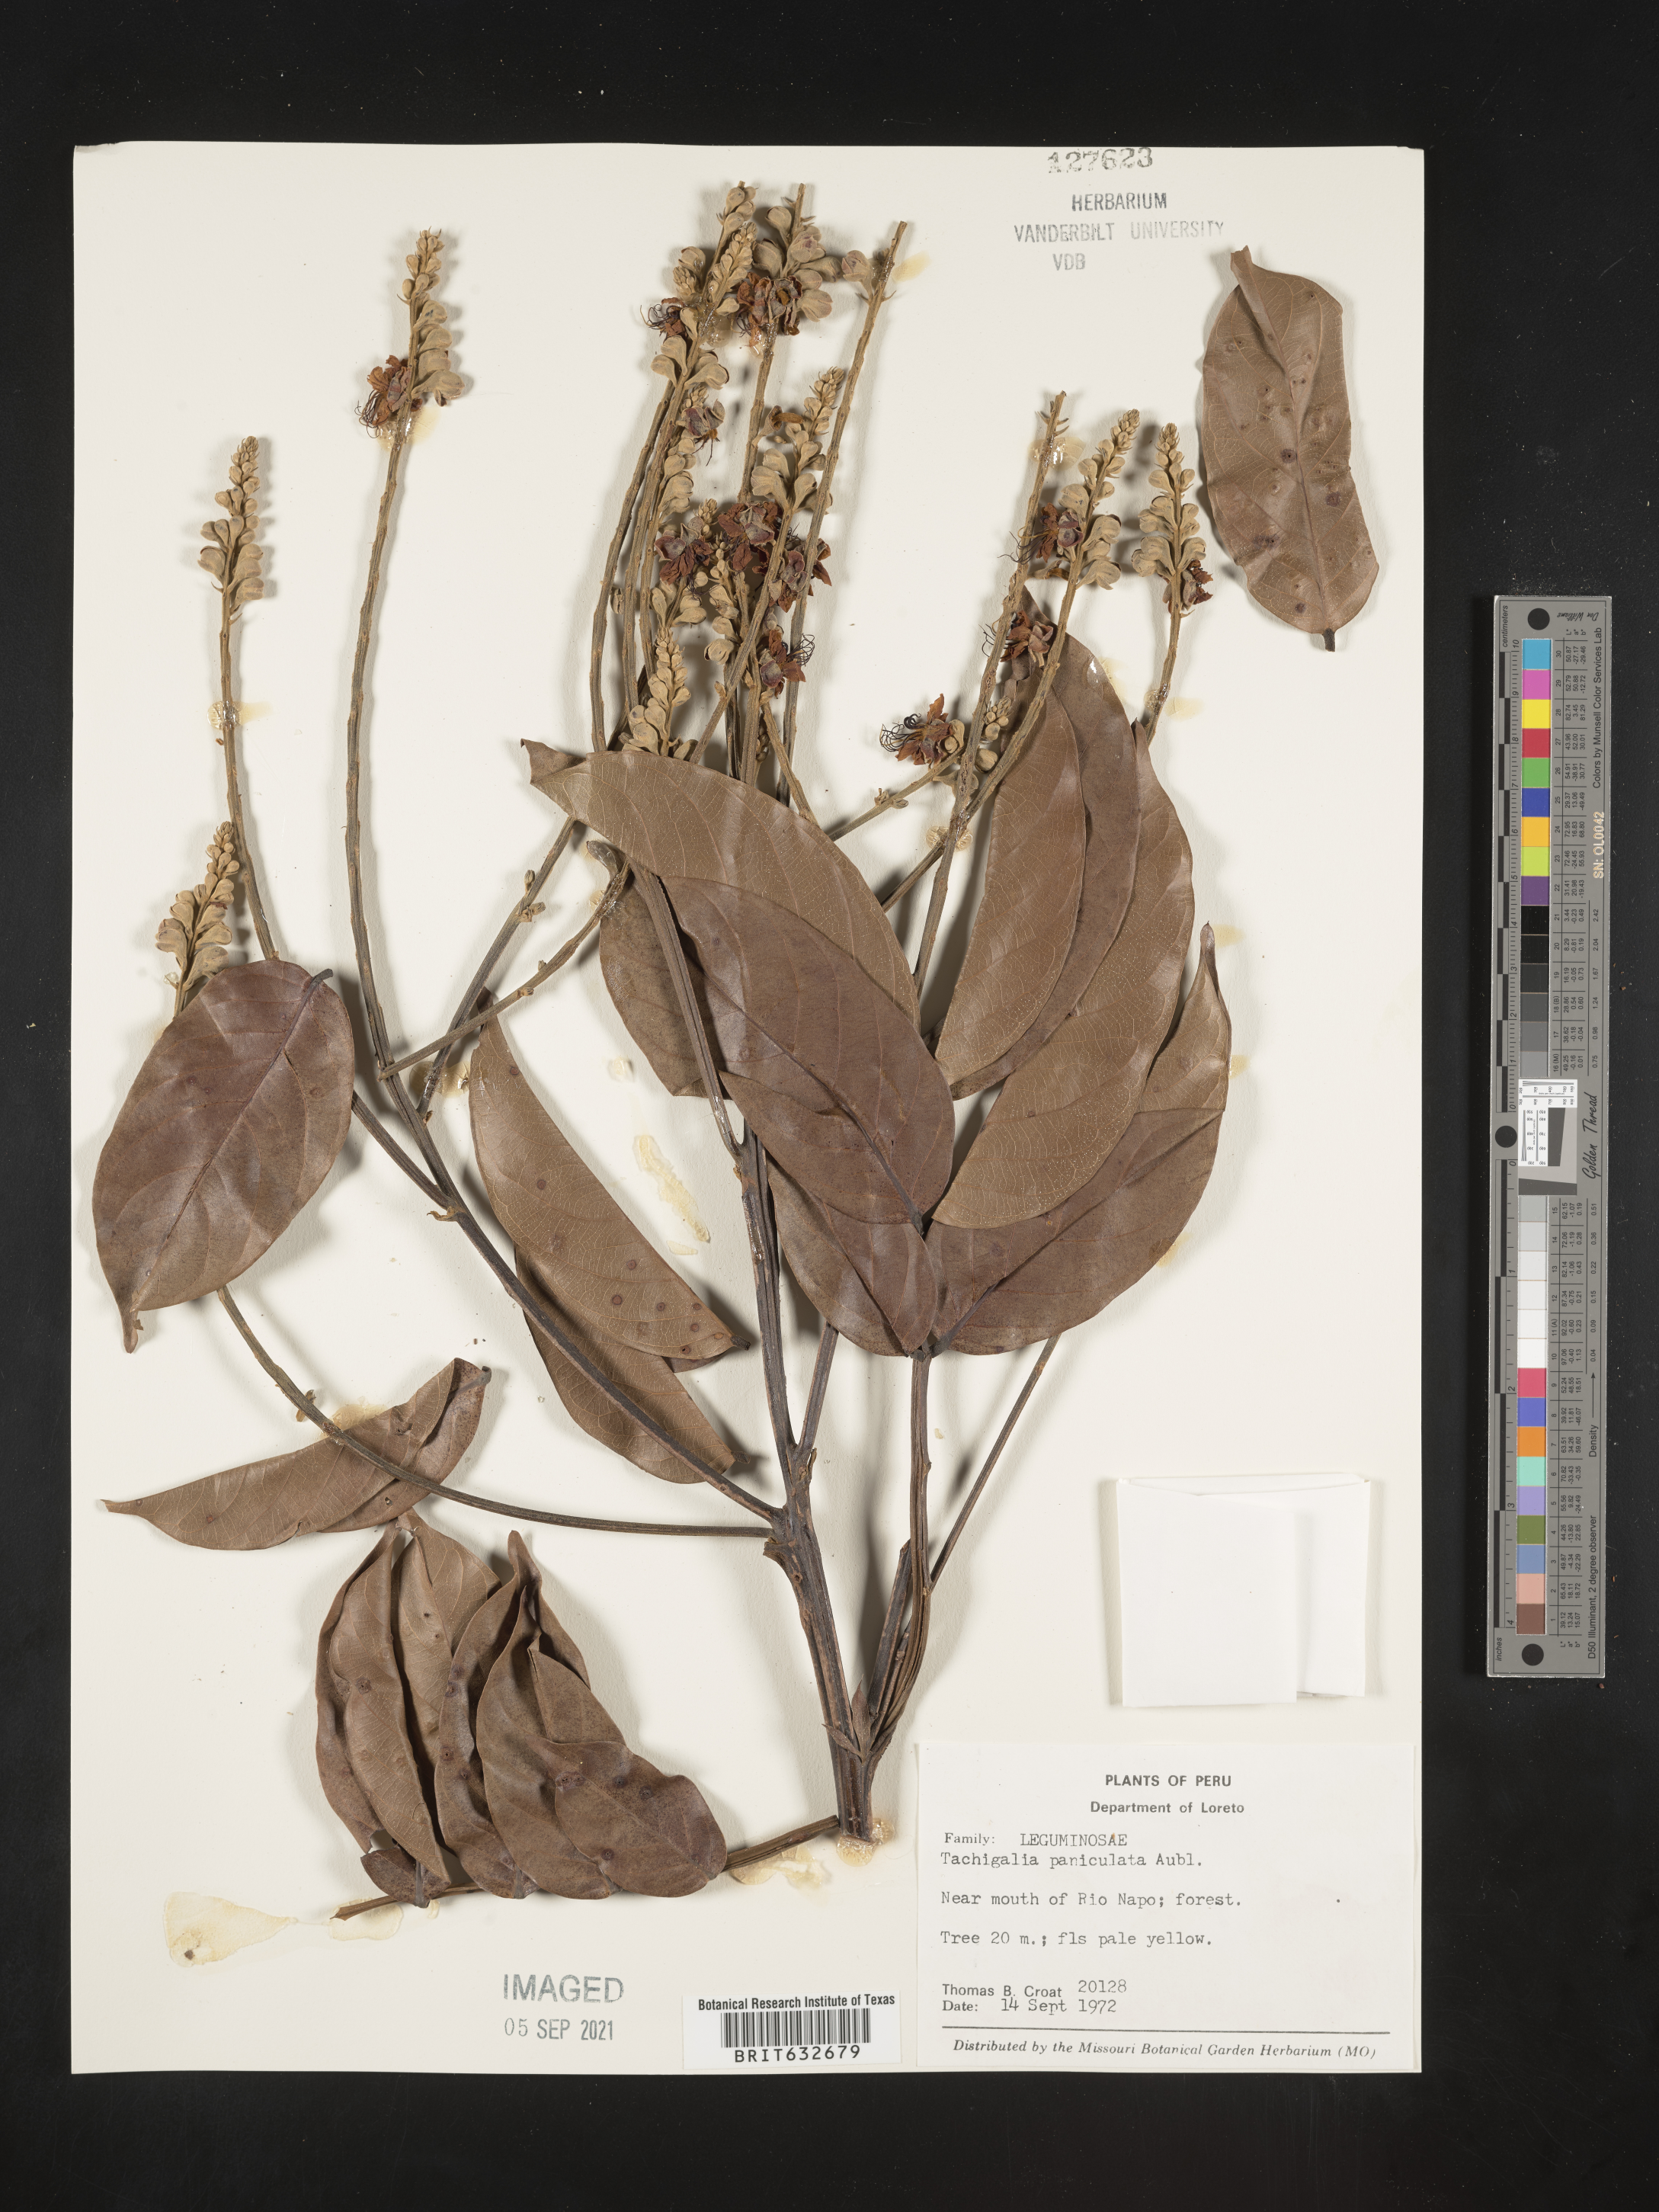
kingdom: Plantae
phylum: Tracheophyta
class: Magnoliopsida
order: Fabales
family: Fabaceae
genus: Tachigali
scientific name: Tachigali
